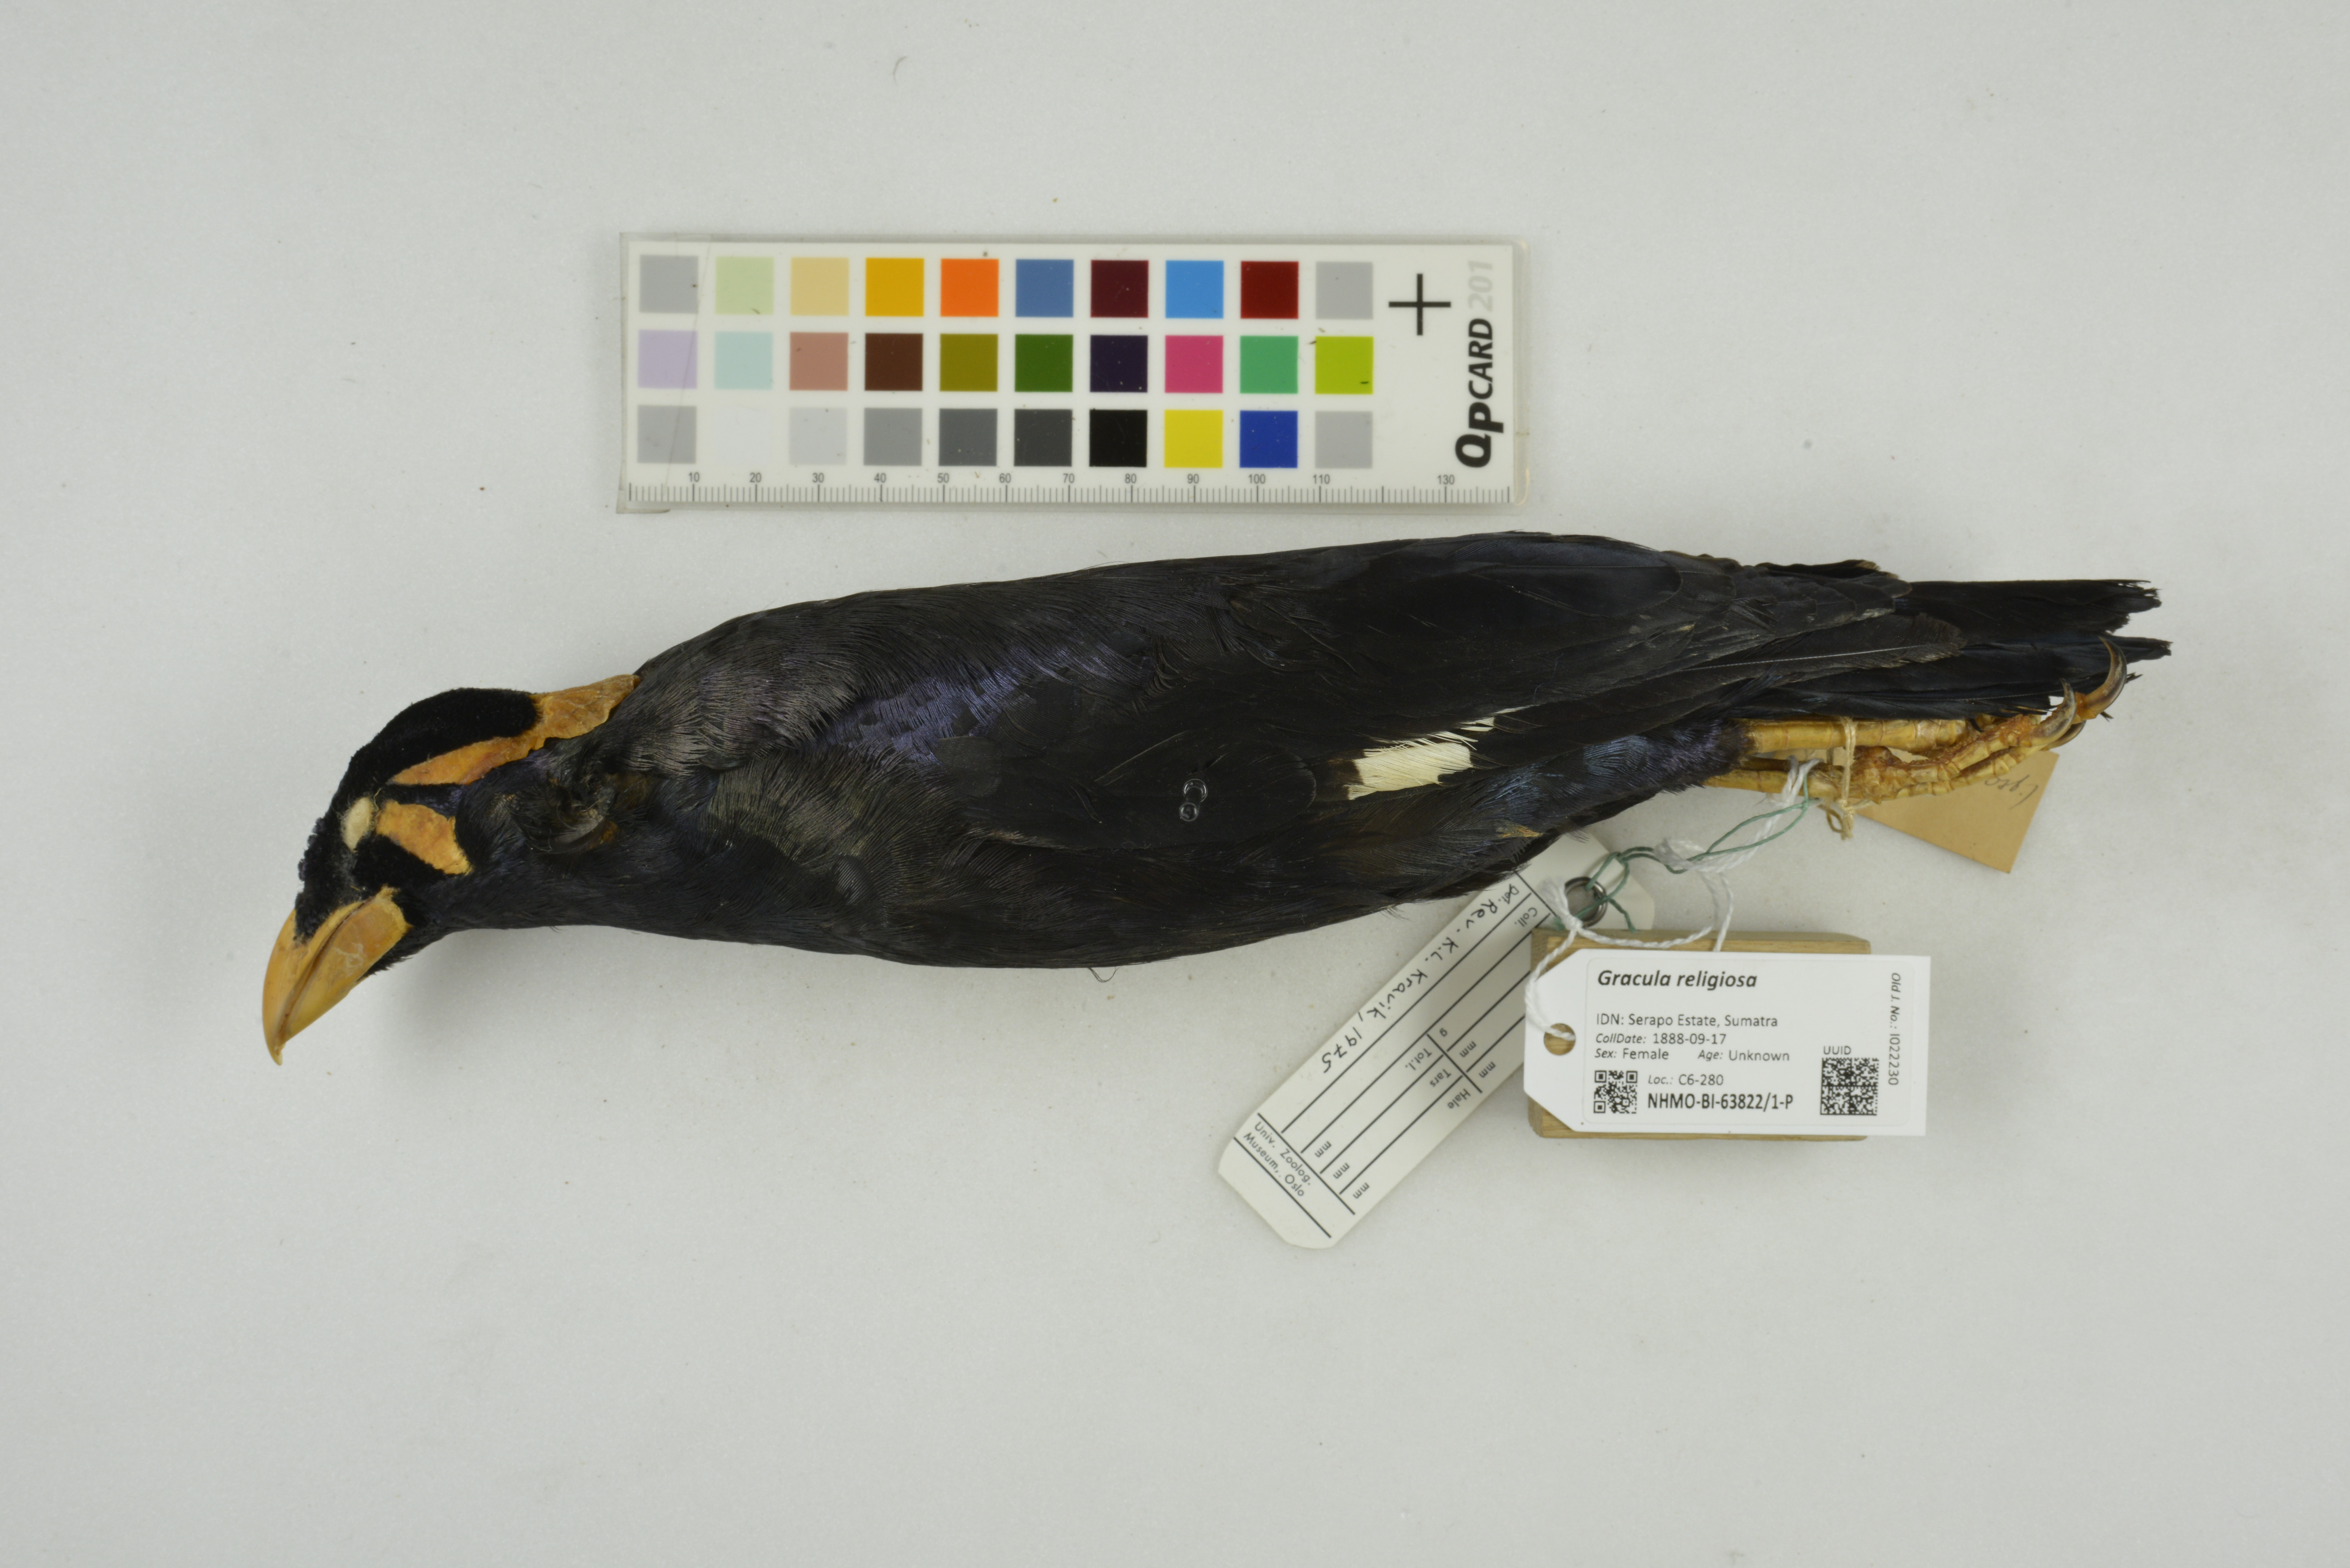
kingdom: Animalia
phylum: Chordata
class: Aves
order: Passeriformes
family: Sturnidae
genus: Gracula
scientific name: Gracula religiosa
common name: Common hill myna
